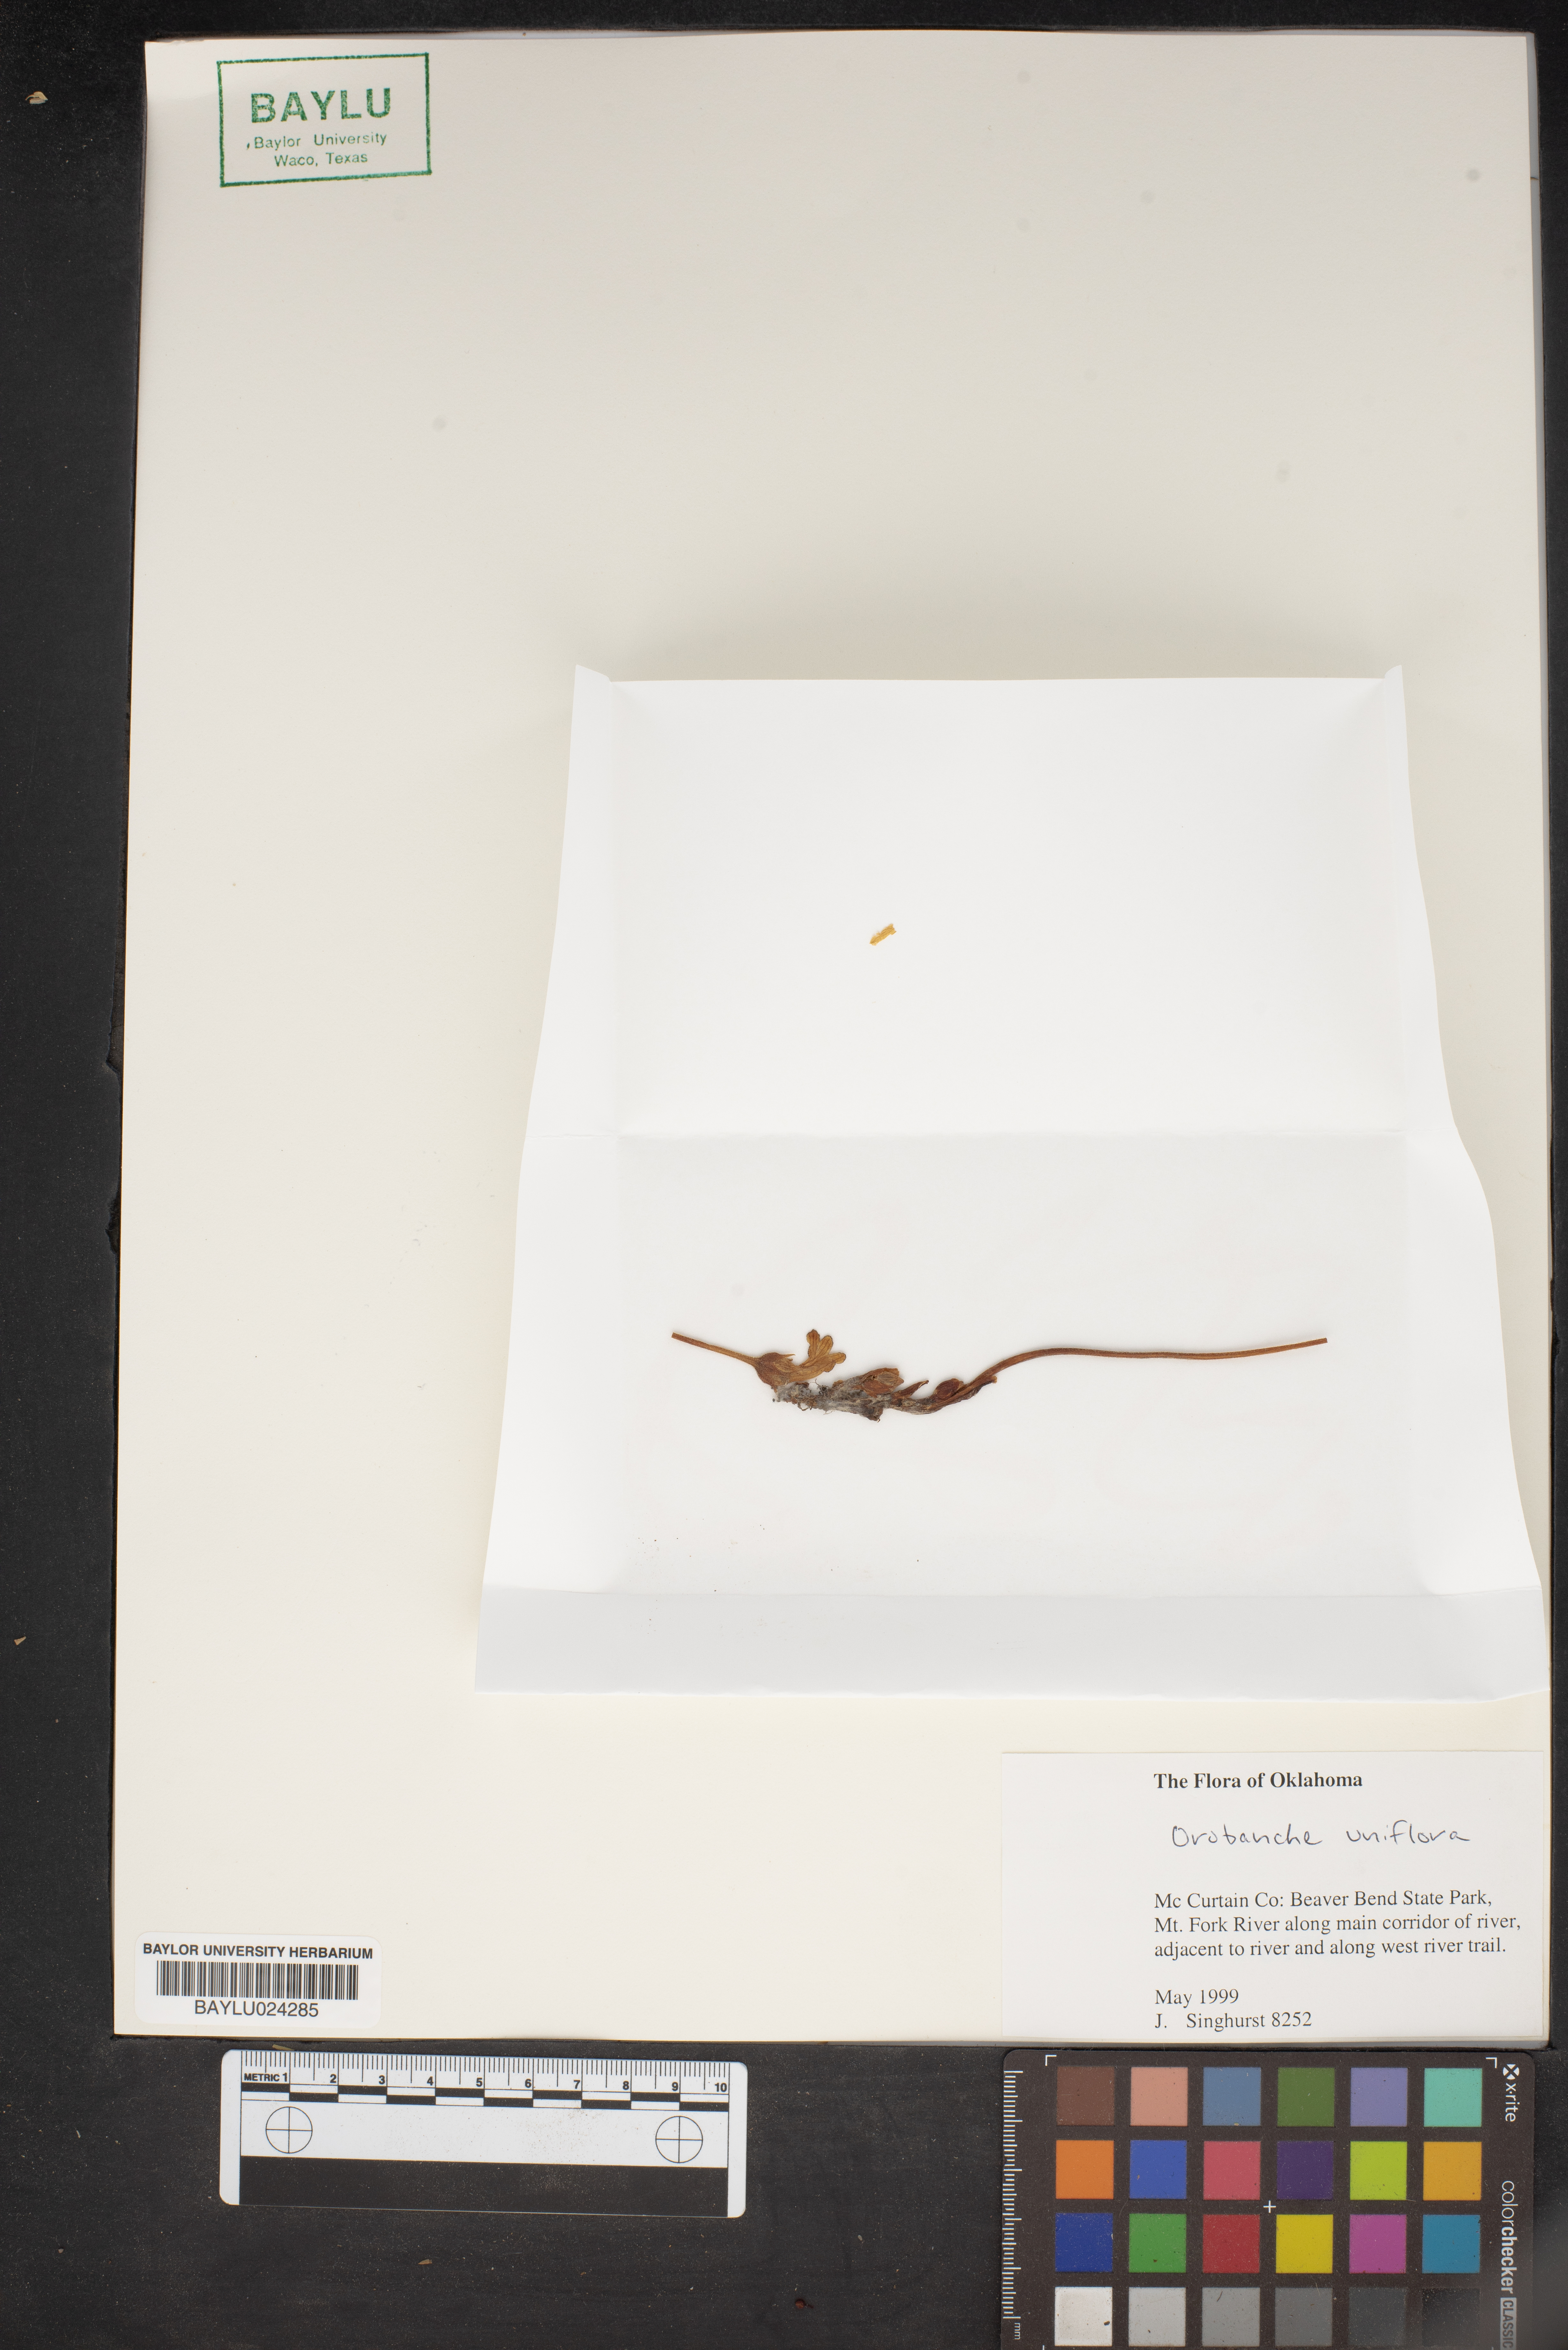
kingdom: Plantae
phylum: Tracheophyta
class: Magnoliopsida
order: Lamiales
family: Orobanchaceae
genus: Aphyllon
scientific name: Aphyllon uniflorum
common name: One-flowered broomrape
